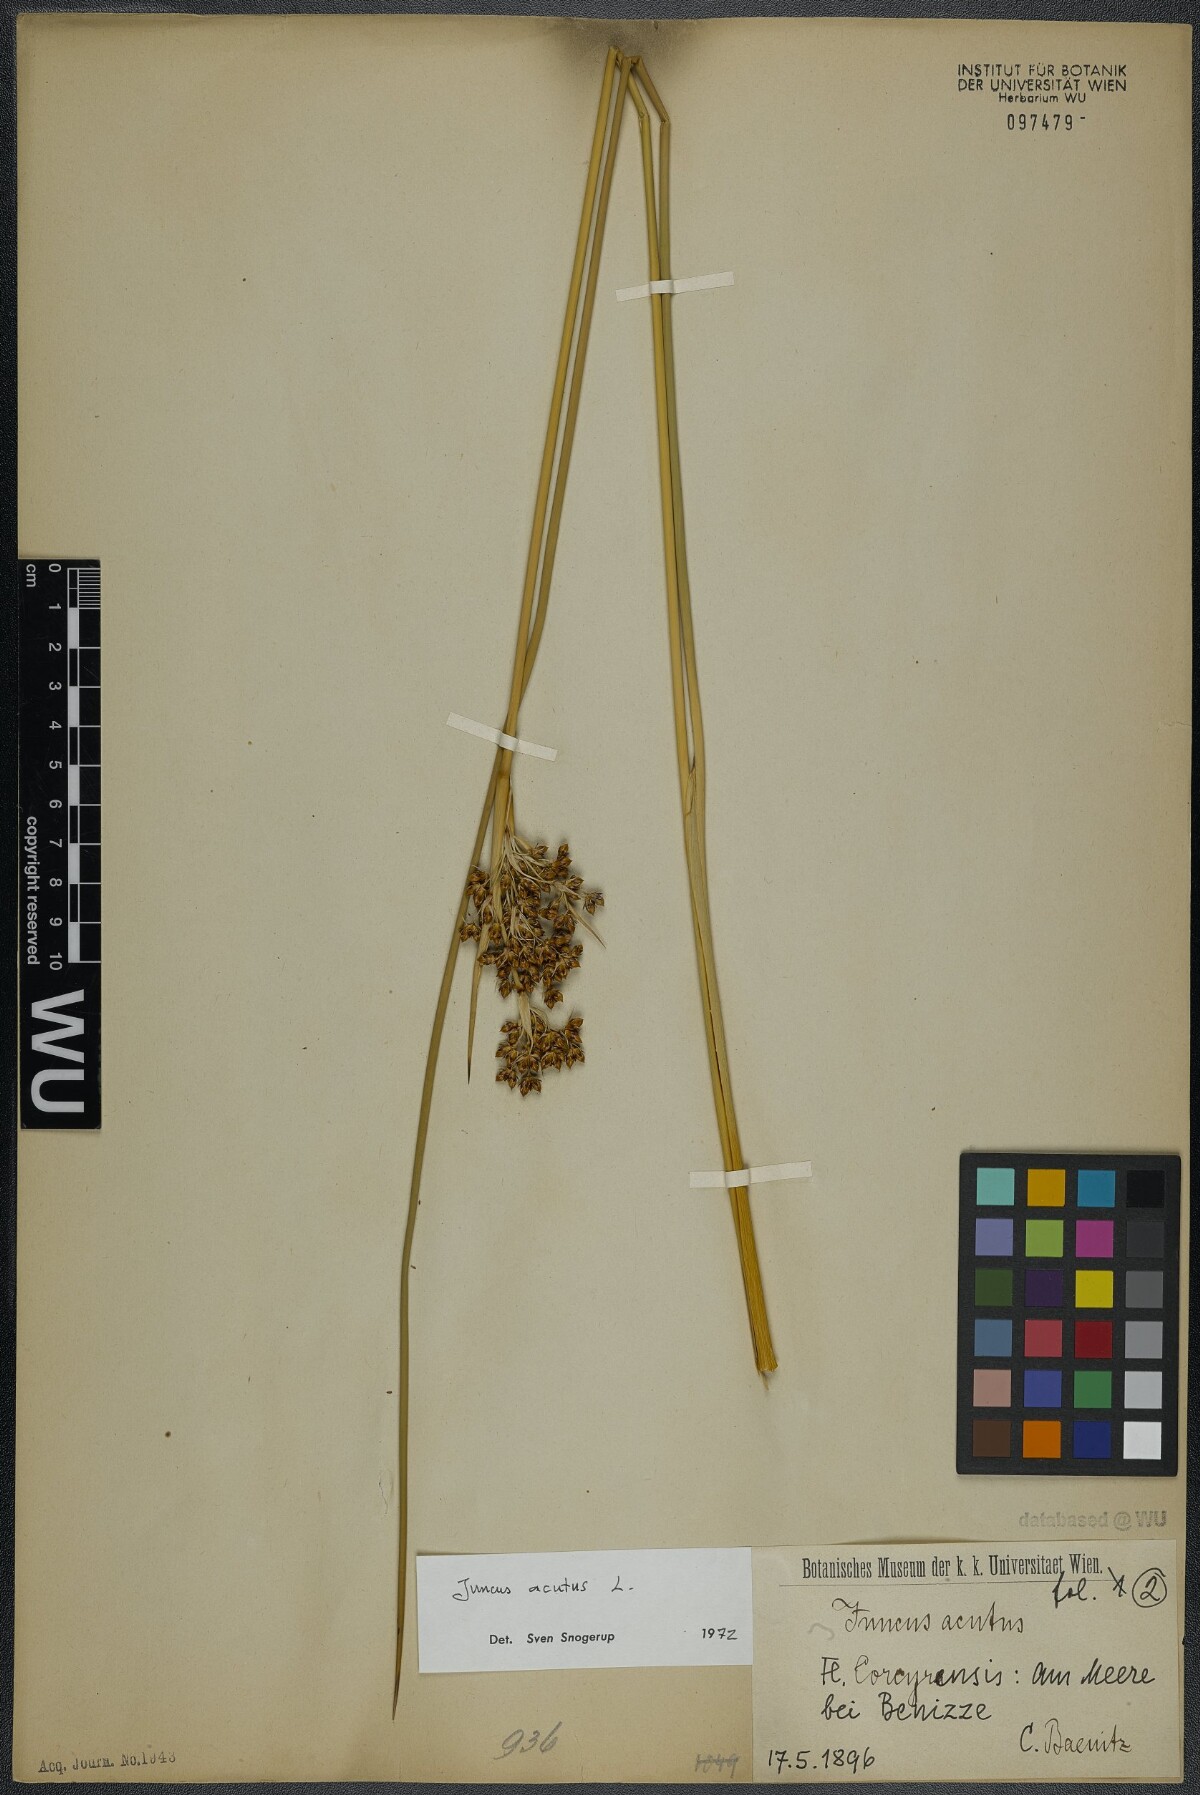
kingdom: Plantae
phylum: Tracheophyta
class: Liliopsida
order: Poales
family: Juncaceae
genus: Juncus
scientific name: Juncus acutus
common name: Sharp rush
